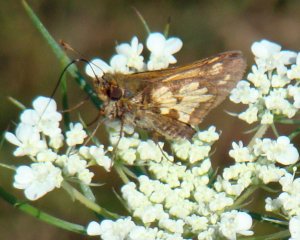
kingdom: Animalia
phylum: Arthropoda
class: Insecta
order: Lepidoptera
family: Hesperiidae
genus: Polites
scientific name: Polites coras
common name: Peck's Skipper
